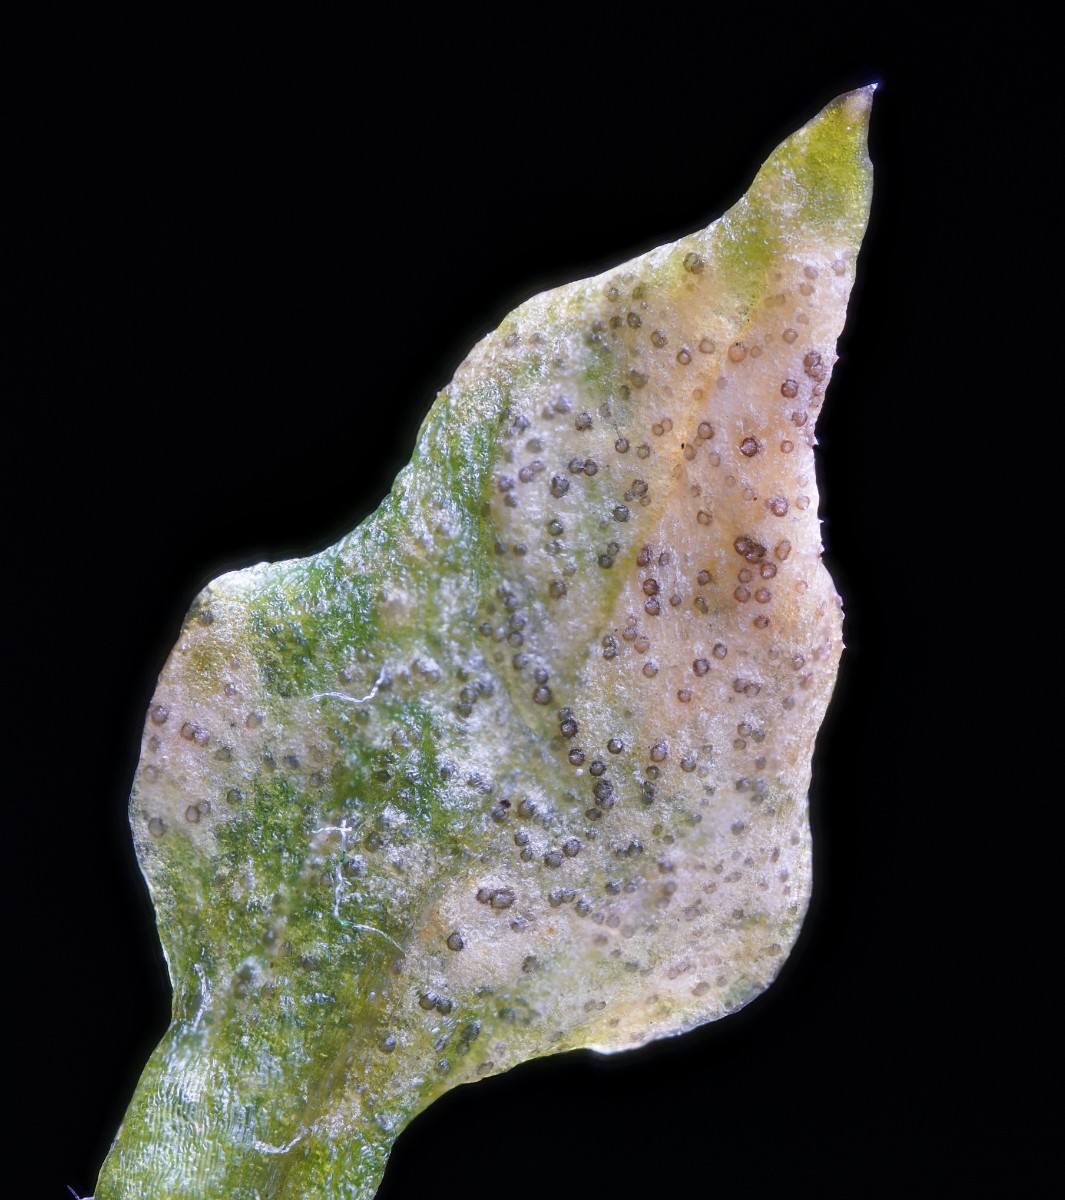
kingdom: Fungi
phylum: Ascomycota
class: Dothideomycetes
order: Mycosphaerellales
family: Mycosphaerellaceae
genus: Septoria
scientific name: Septoria stellariae
